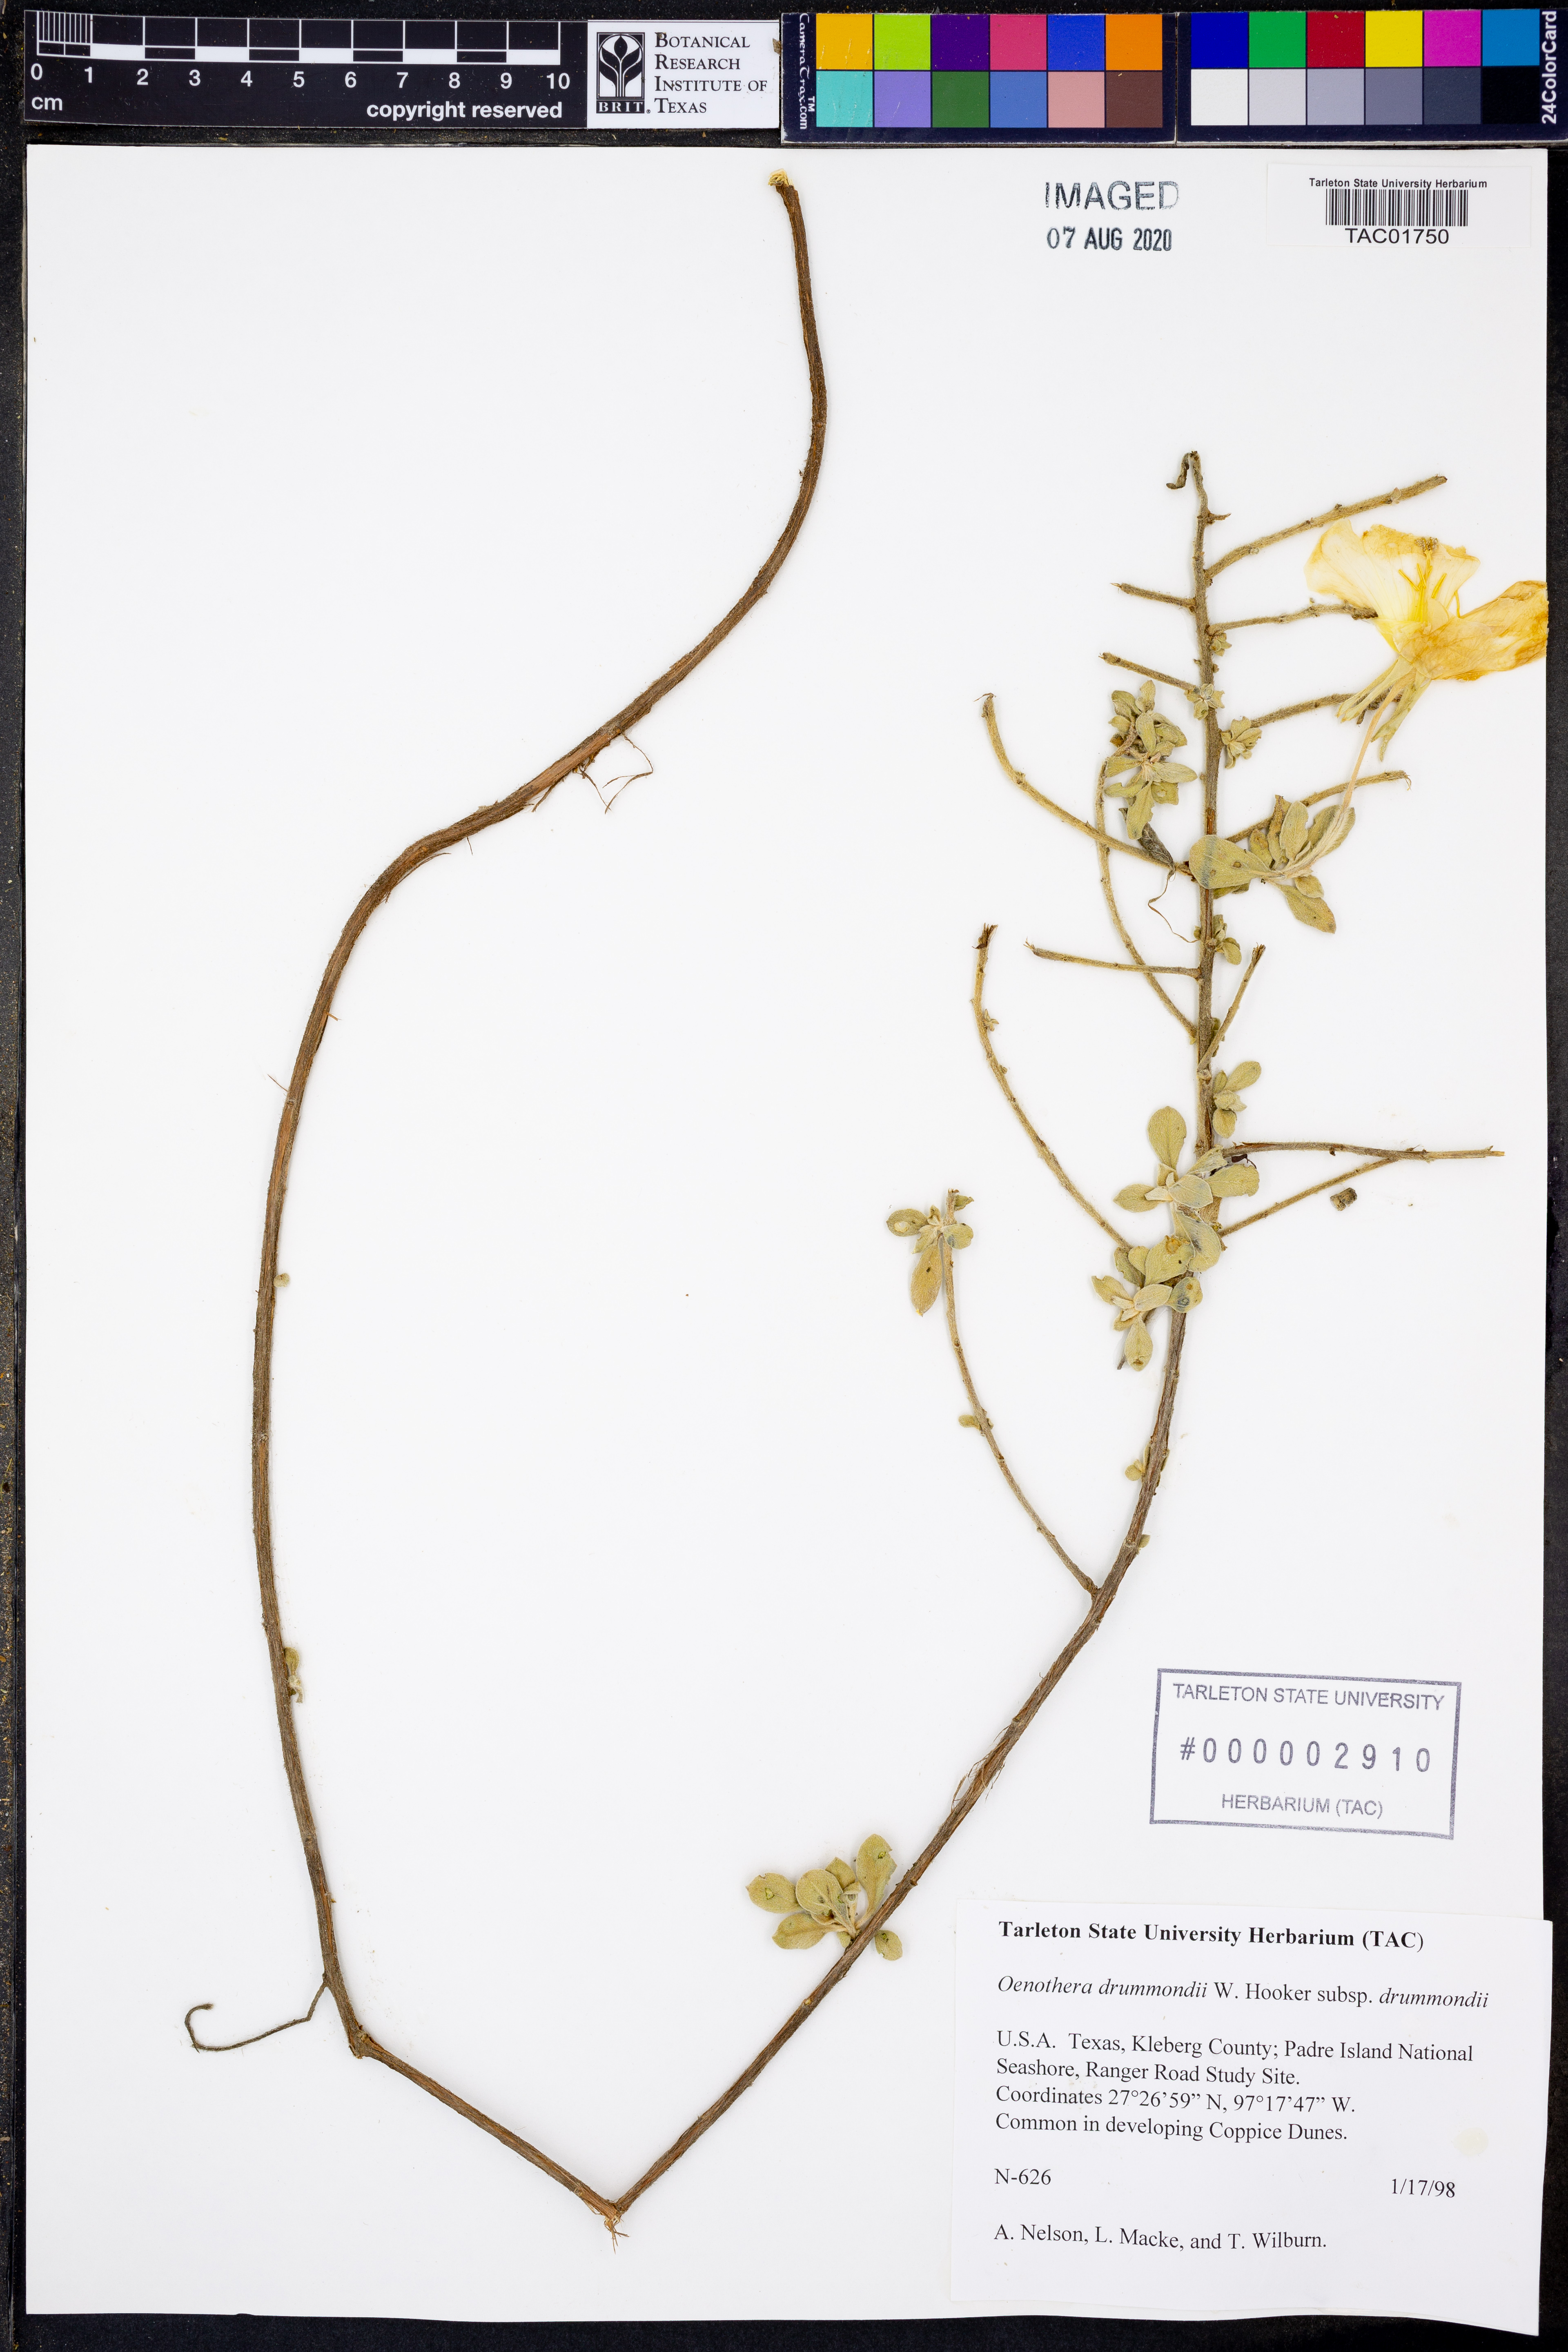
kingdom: Plantae
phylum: Tracheophyta
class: Magnoliopsida
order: Myrtales
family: Onagraceae
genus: Oenothera
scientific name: Oenothera drummondii
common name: Beach evening-primrose
